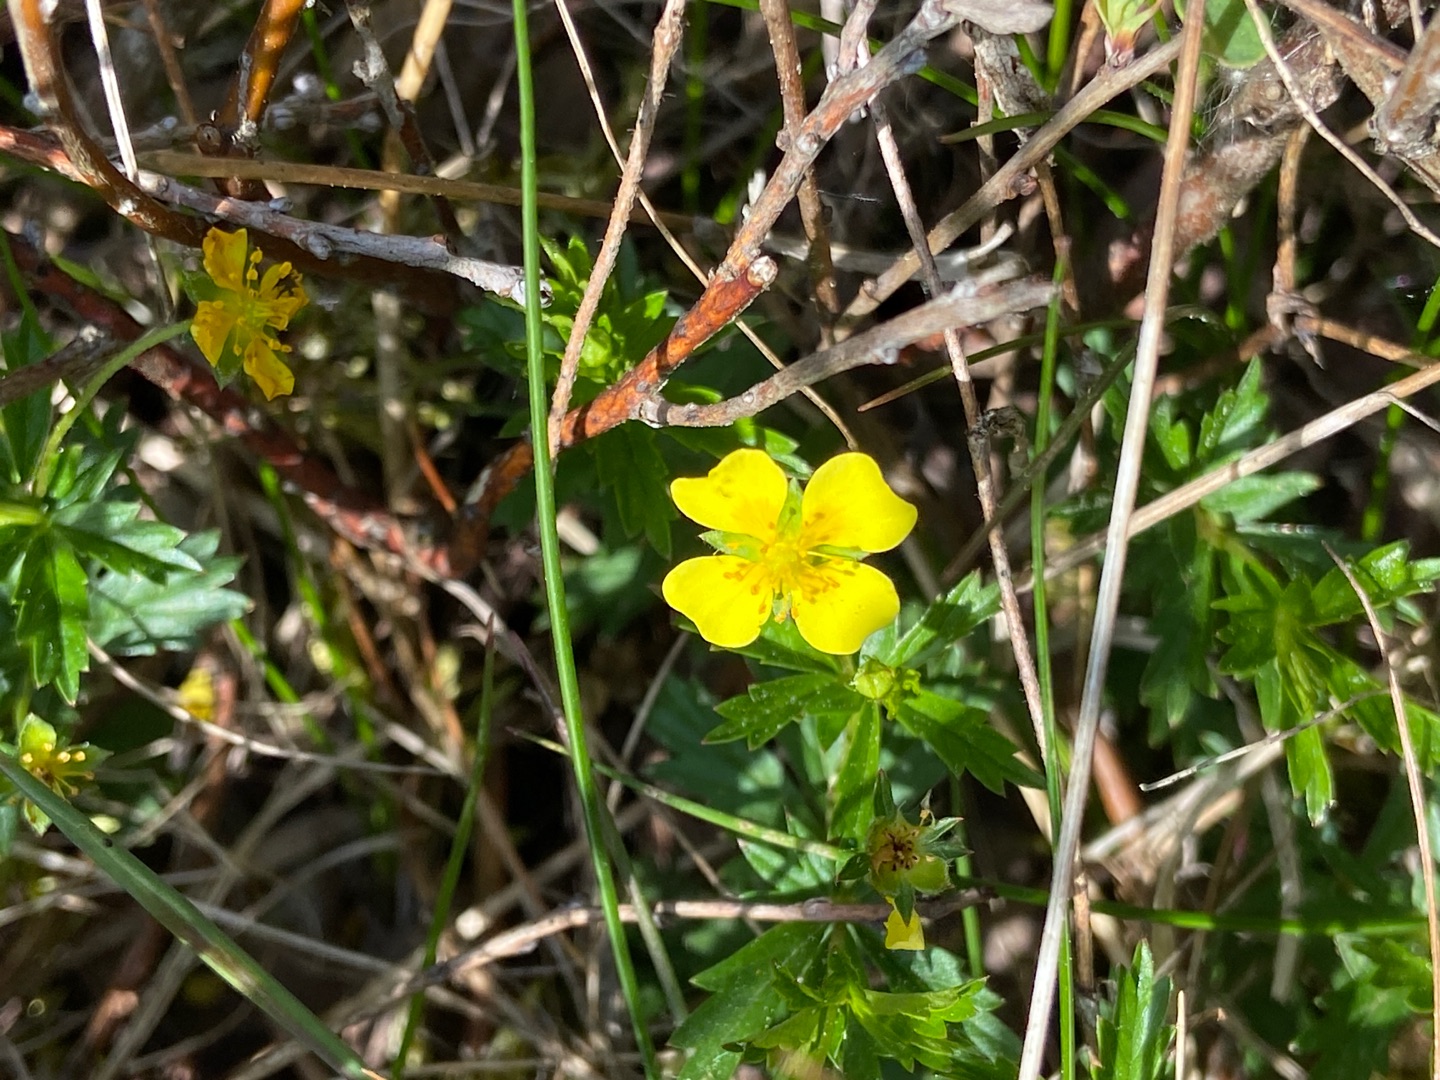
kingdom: Plantae
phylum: Tracheophyta
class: Magnoliopsida
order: Rosales
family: Rosaceae
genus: Potentilla
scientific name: Potentilla erecta
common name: Tormentil
